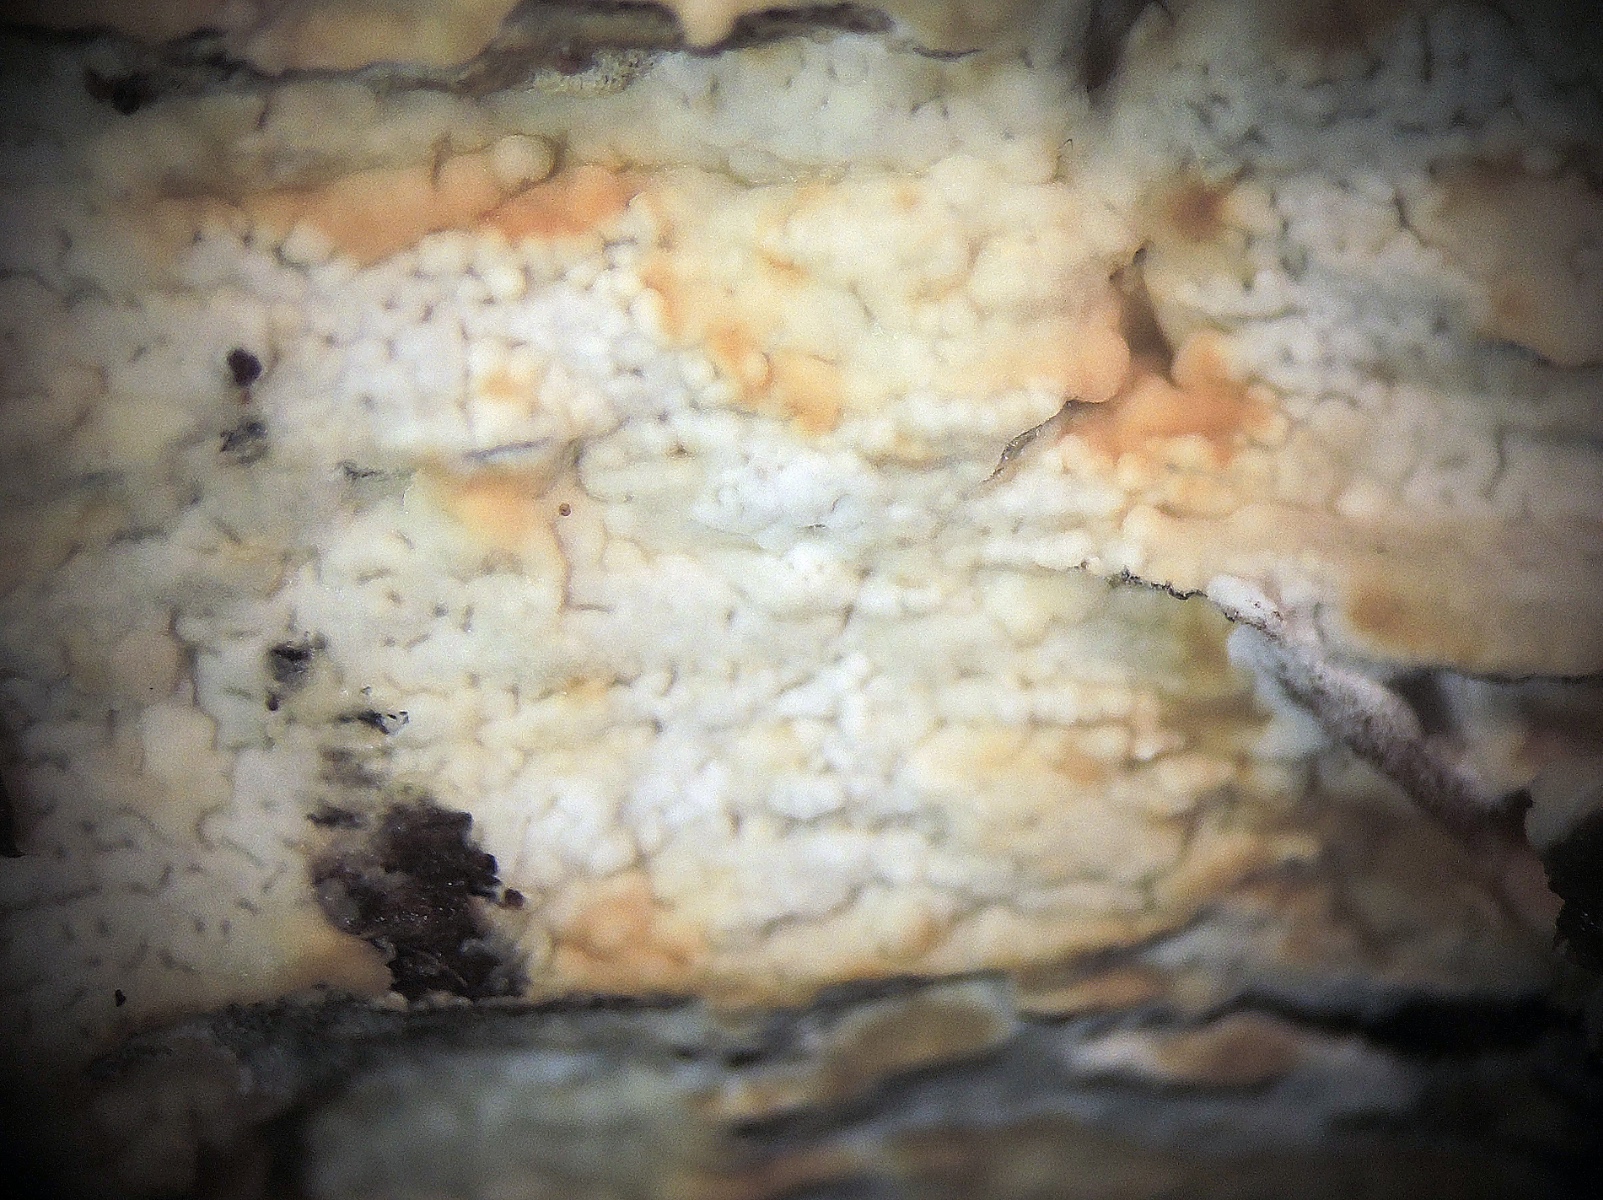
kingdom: Fungi
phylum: Basidiomycota
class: Agaricomycetes
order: Amylocorticiales
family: Amylocorticiaceae
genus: Ceraceomyces
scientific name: Ceraceomyces microsporus
